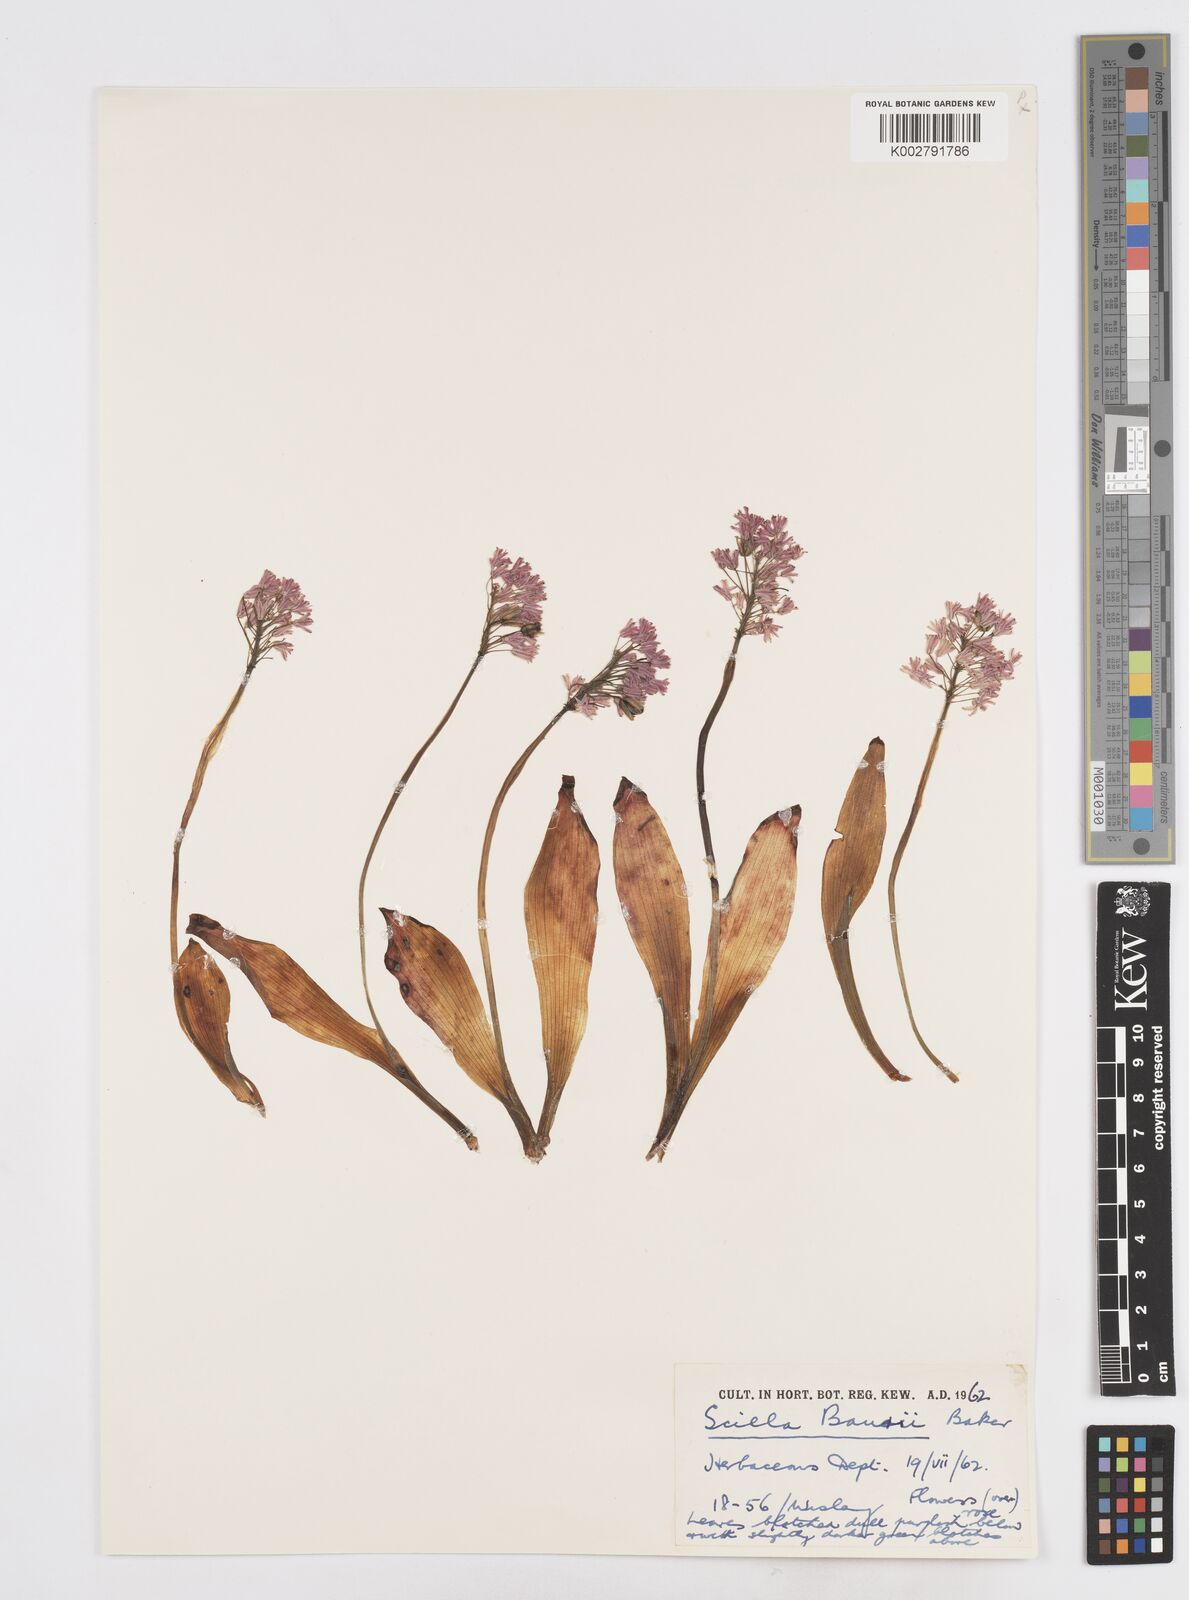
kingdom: Plantae
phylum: Tracheophyta
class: Liliopsida
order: Asparagales
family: Asparagaceae
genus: Ledebouria
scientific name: Ledebouria sandersonii
